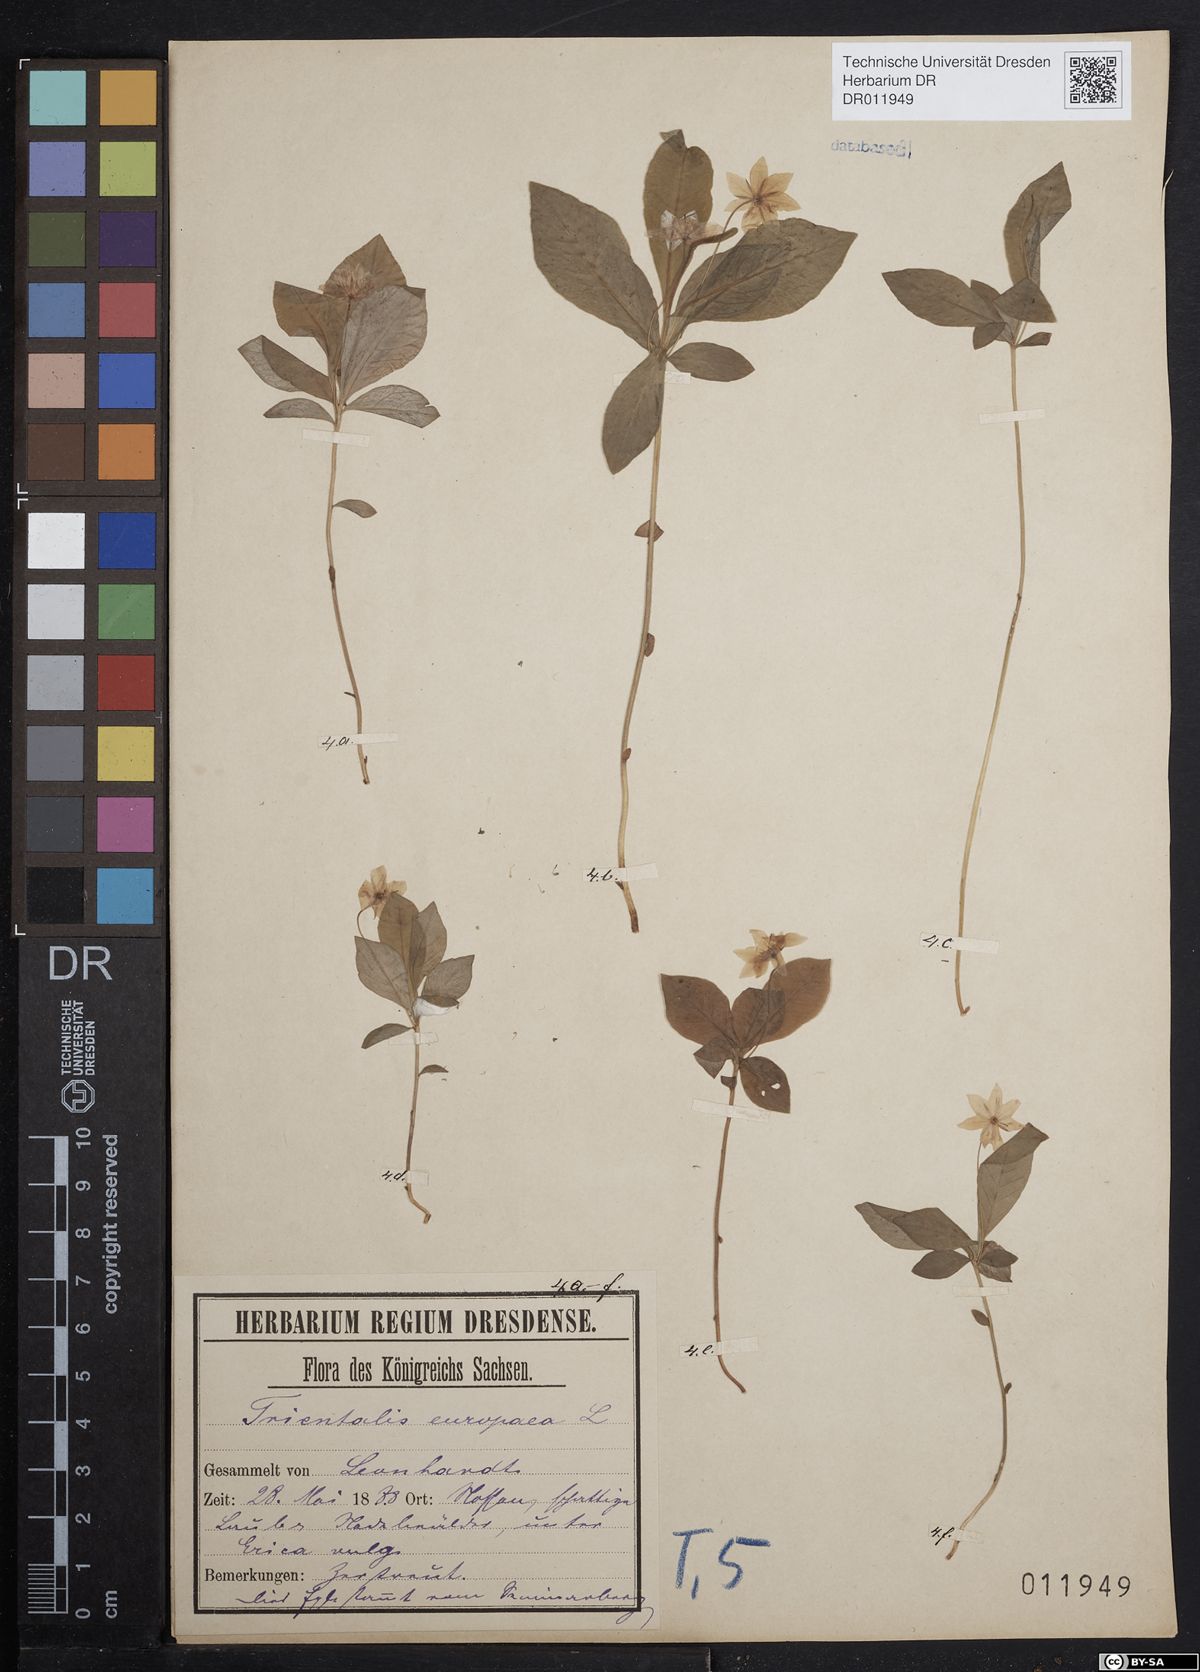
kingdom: Plantae
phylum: Tracheophyta
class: Magnoliopsida
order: Ericales
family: Primulaceae
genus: Lysimachia
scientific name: Lysimachia europaea
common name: Arctic starflower
